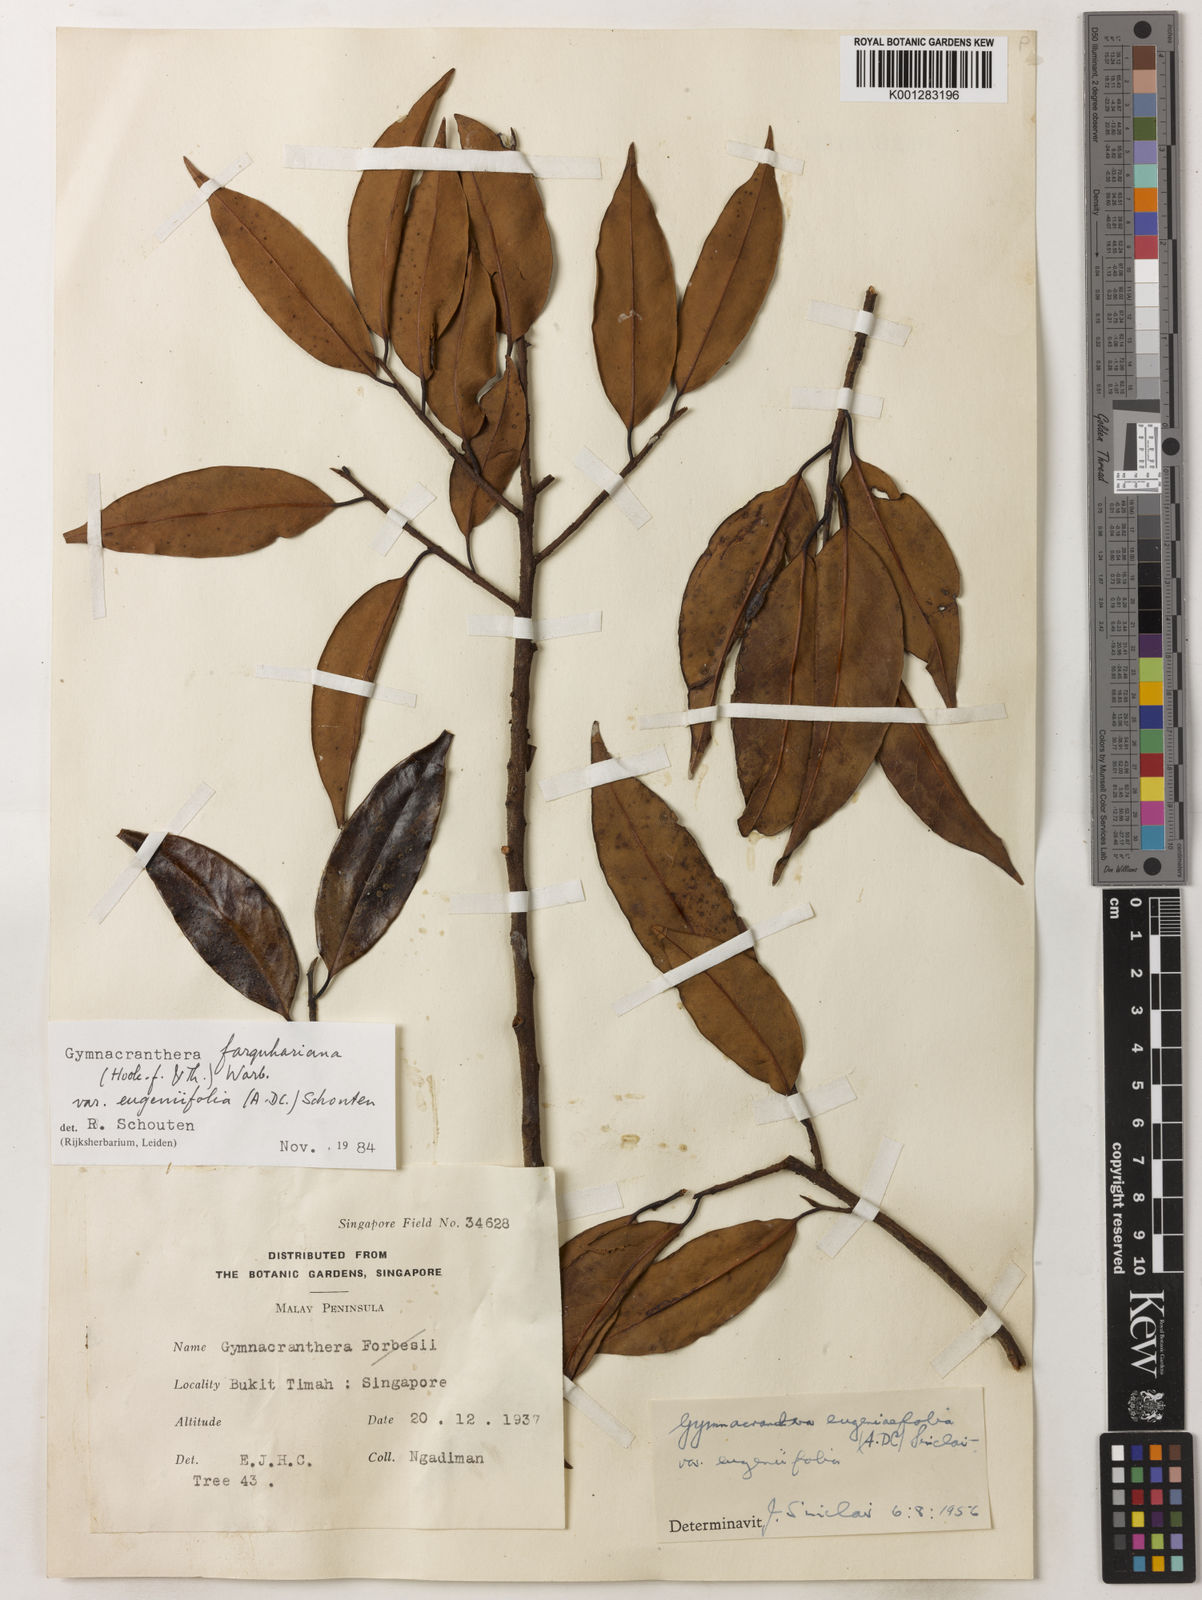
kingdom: Plantae
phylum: Tracheophyta
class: Magnoliopsida
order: Magnoliales
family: Myristicaceae
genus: Gymnacranthera
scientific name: Gymnacranthera farquhariana
